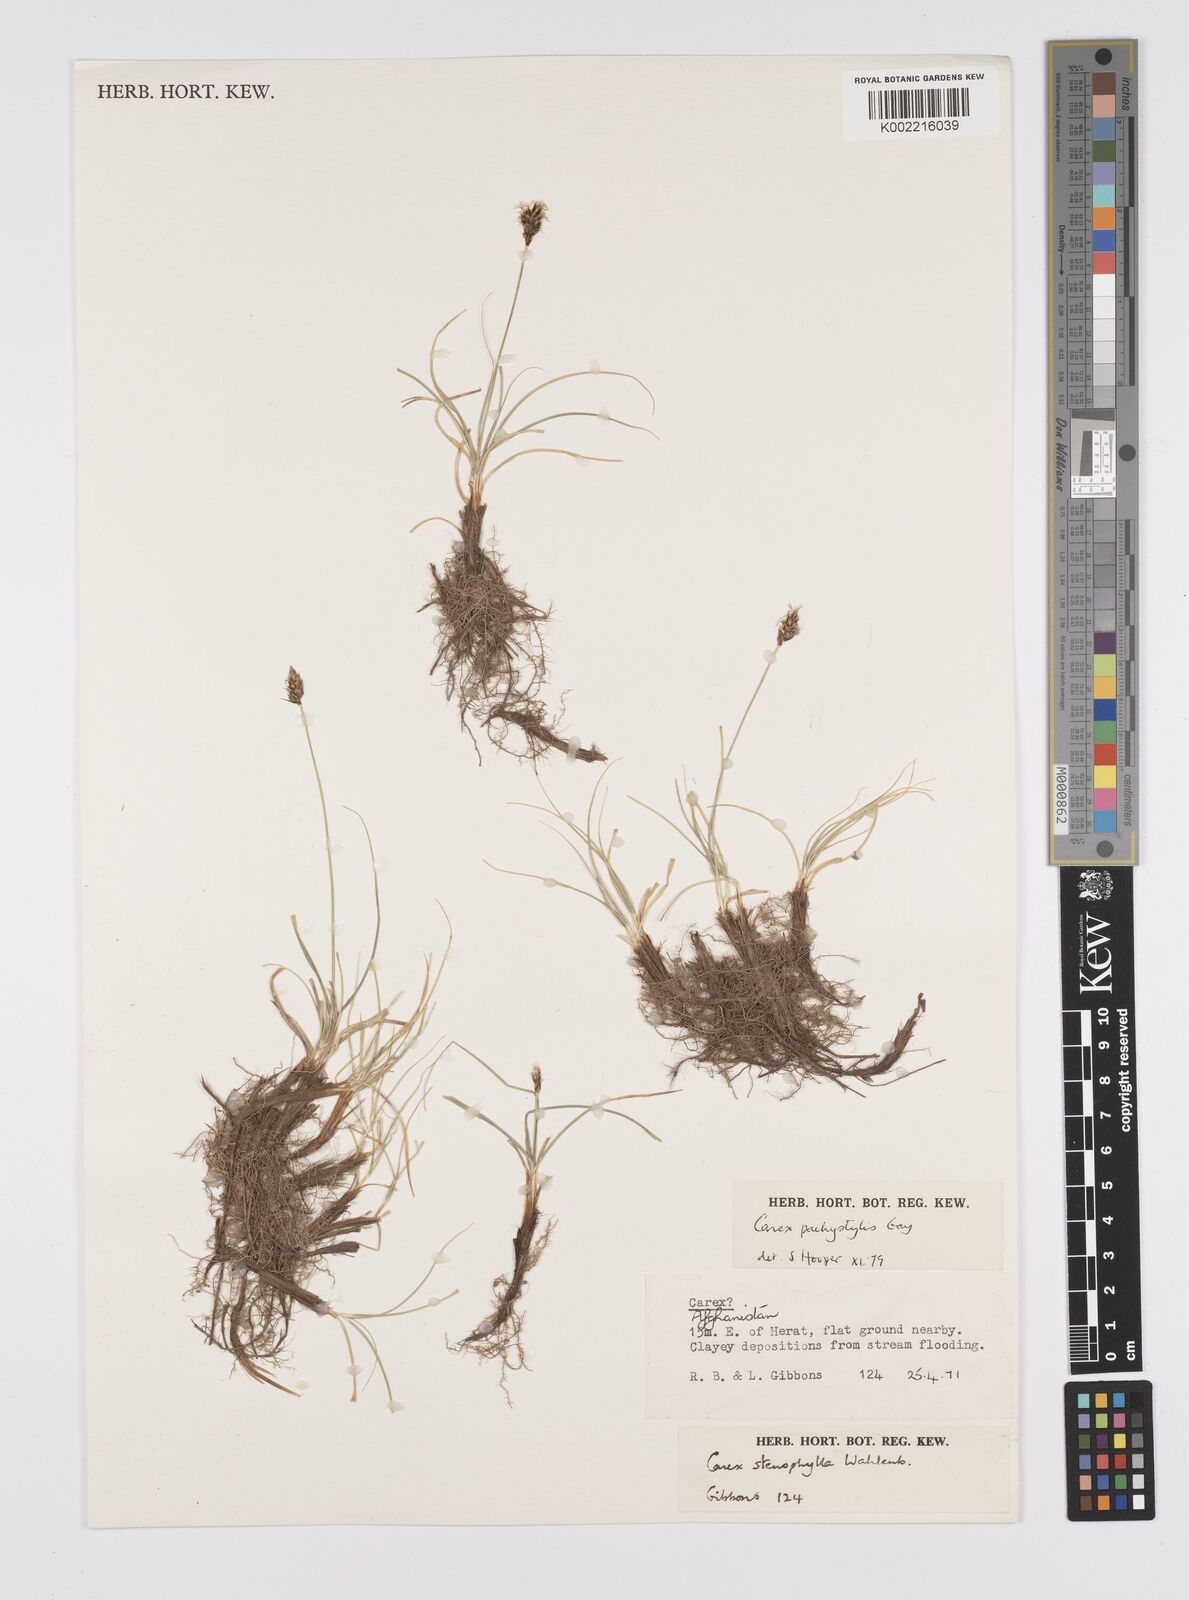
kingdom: Plantae
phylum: Tracheophyta
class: Liliopsida
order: Poales
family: Cyperaceae
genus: Carex
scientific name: Carex pachystylis
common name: Thick-stem sedge
